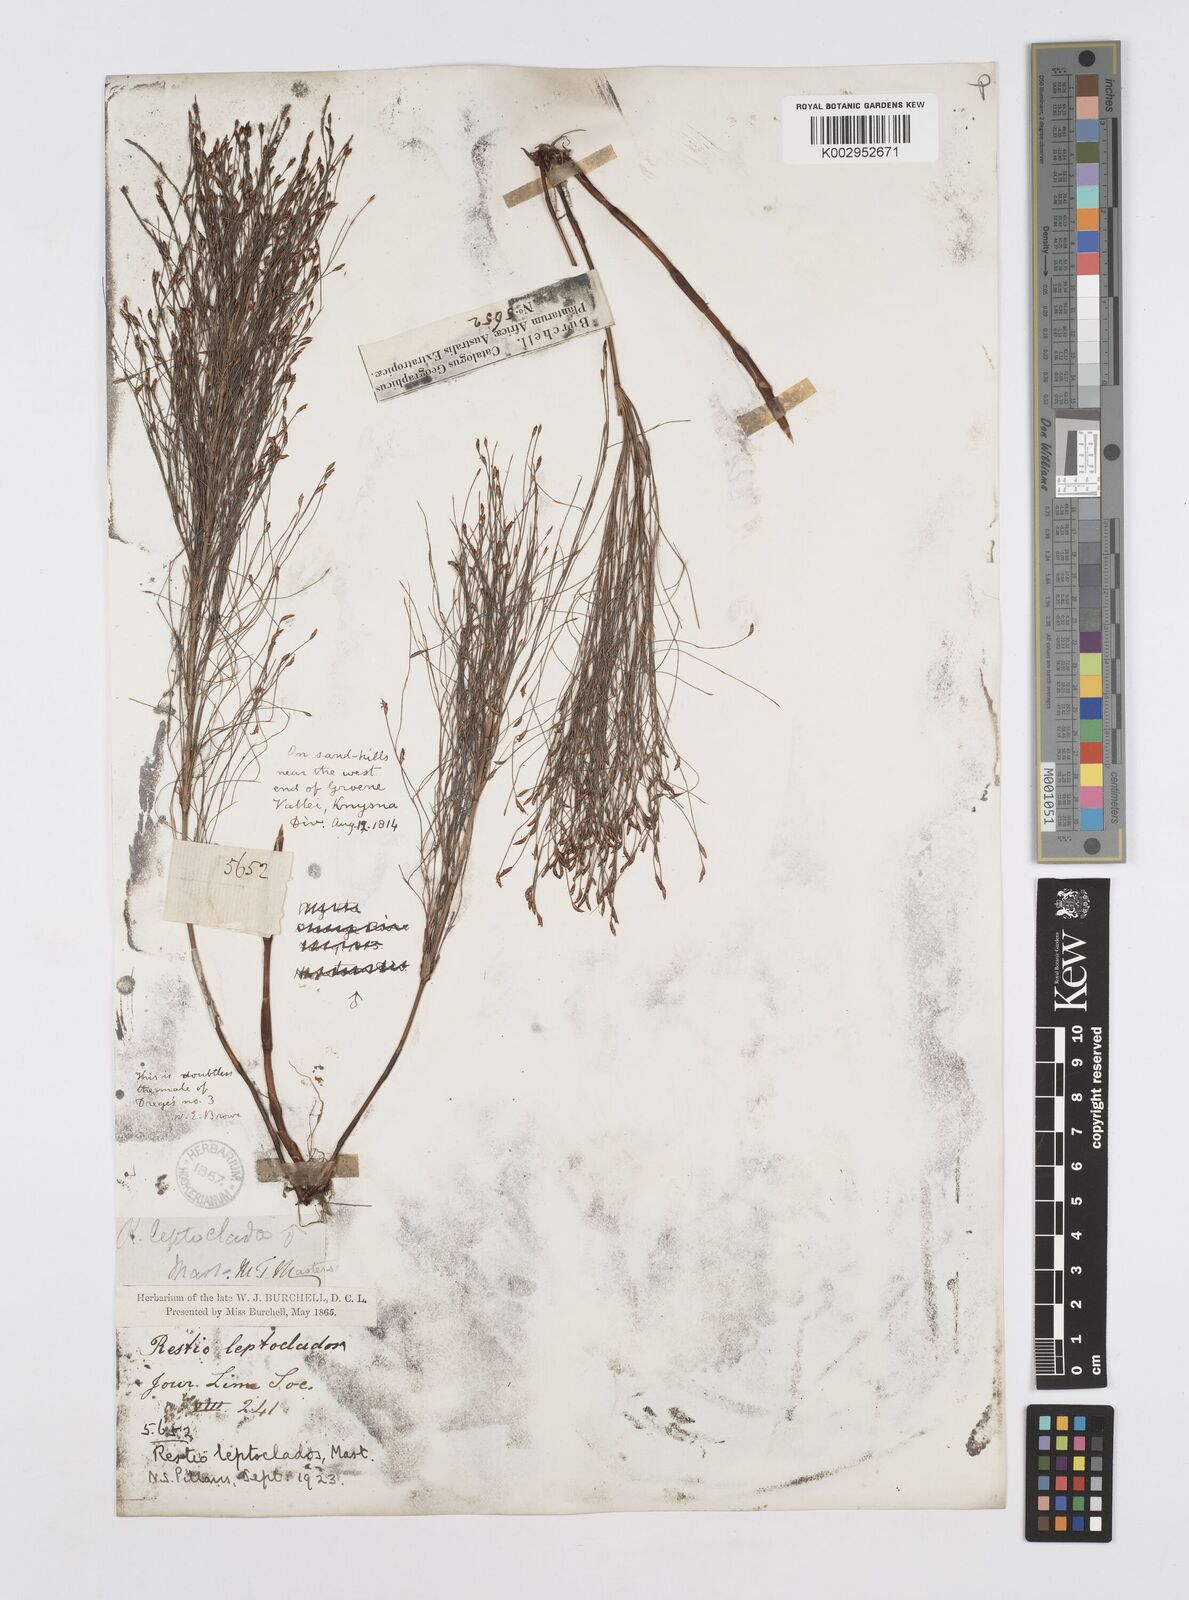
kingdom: Plantae
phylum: Tracheophyta
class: Liliopsida
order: Poales
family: Restionaceae
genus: Restio
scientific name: Restio leptoclados
